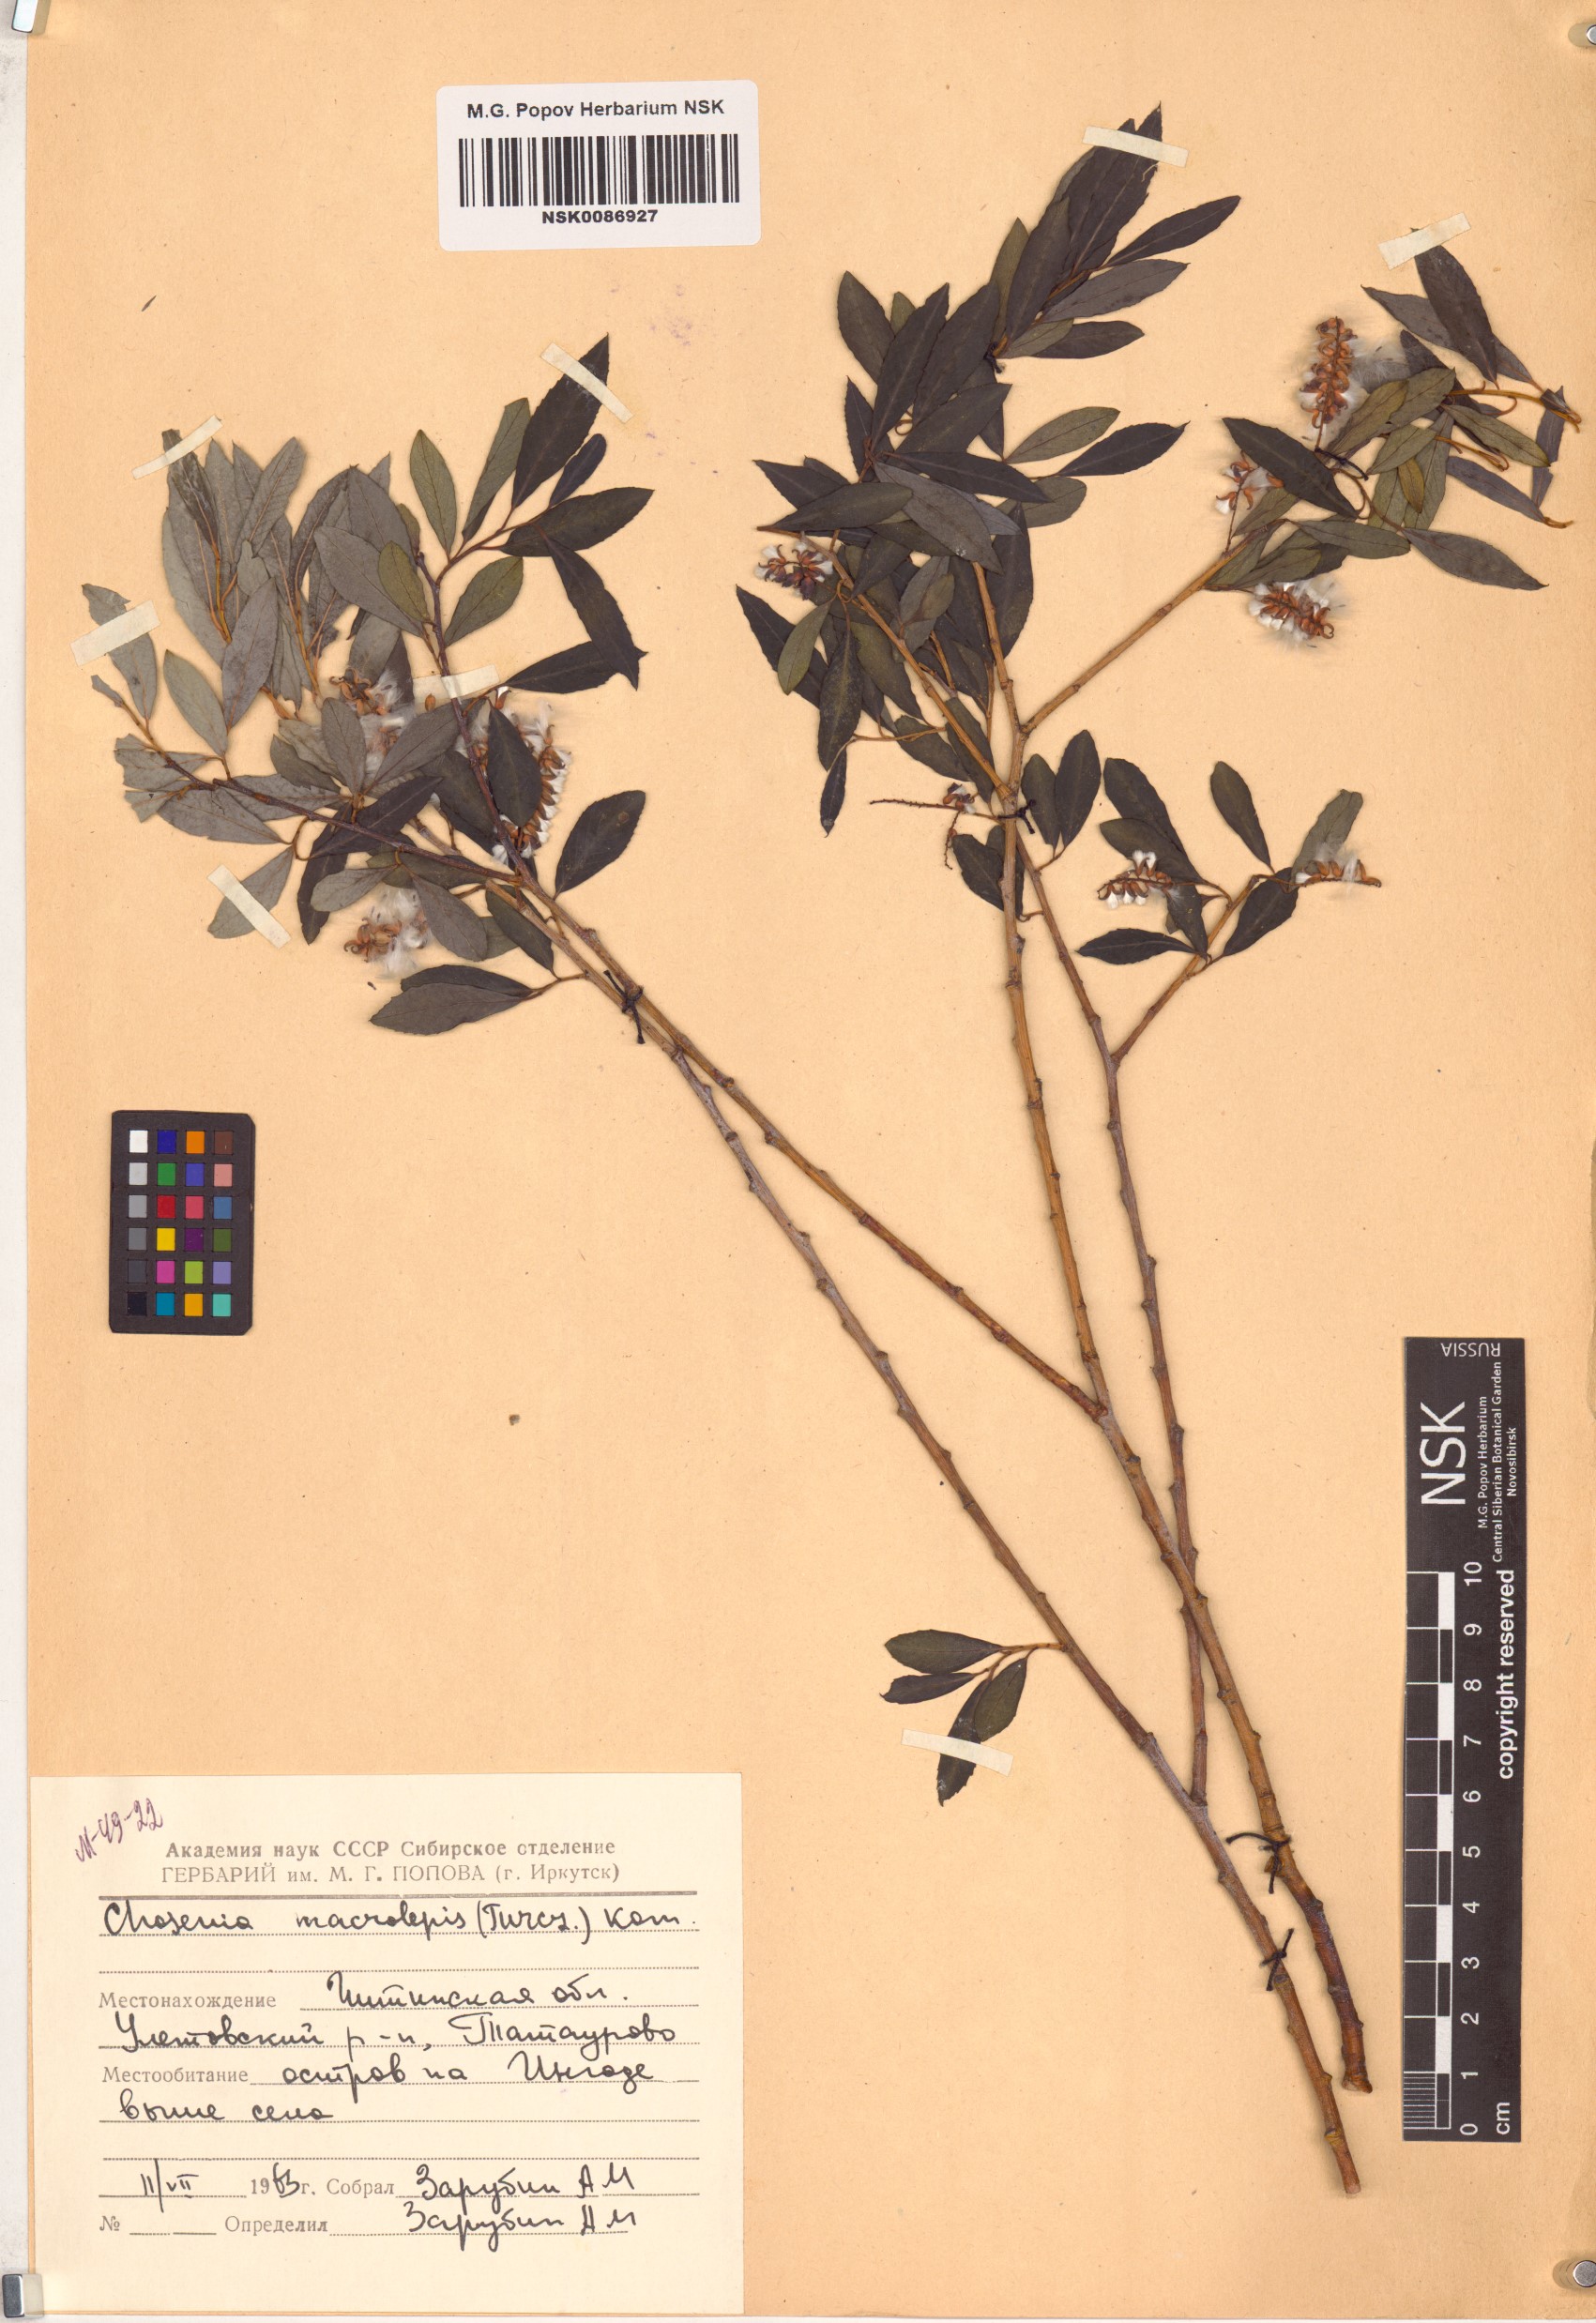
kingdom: Plantae
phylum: Tracheophyta
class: Magnoliopsida
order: Malpighiales
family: Salicaceae
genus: Chosenia
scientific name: Chosenia arbutifolia
